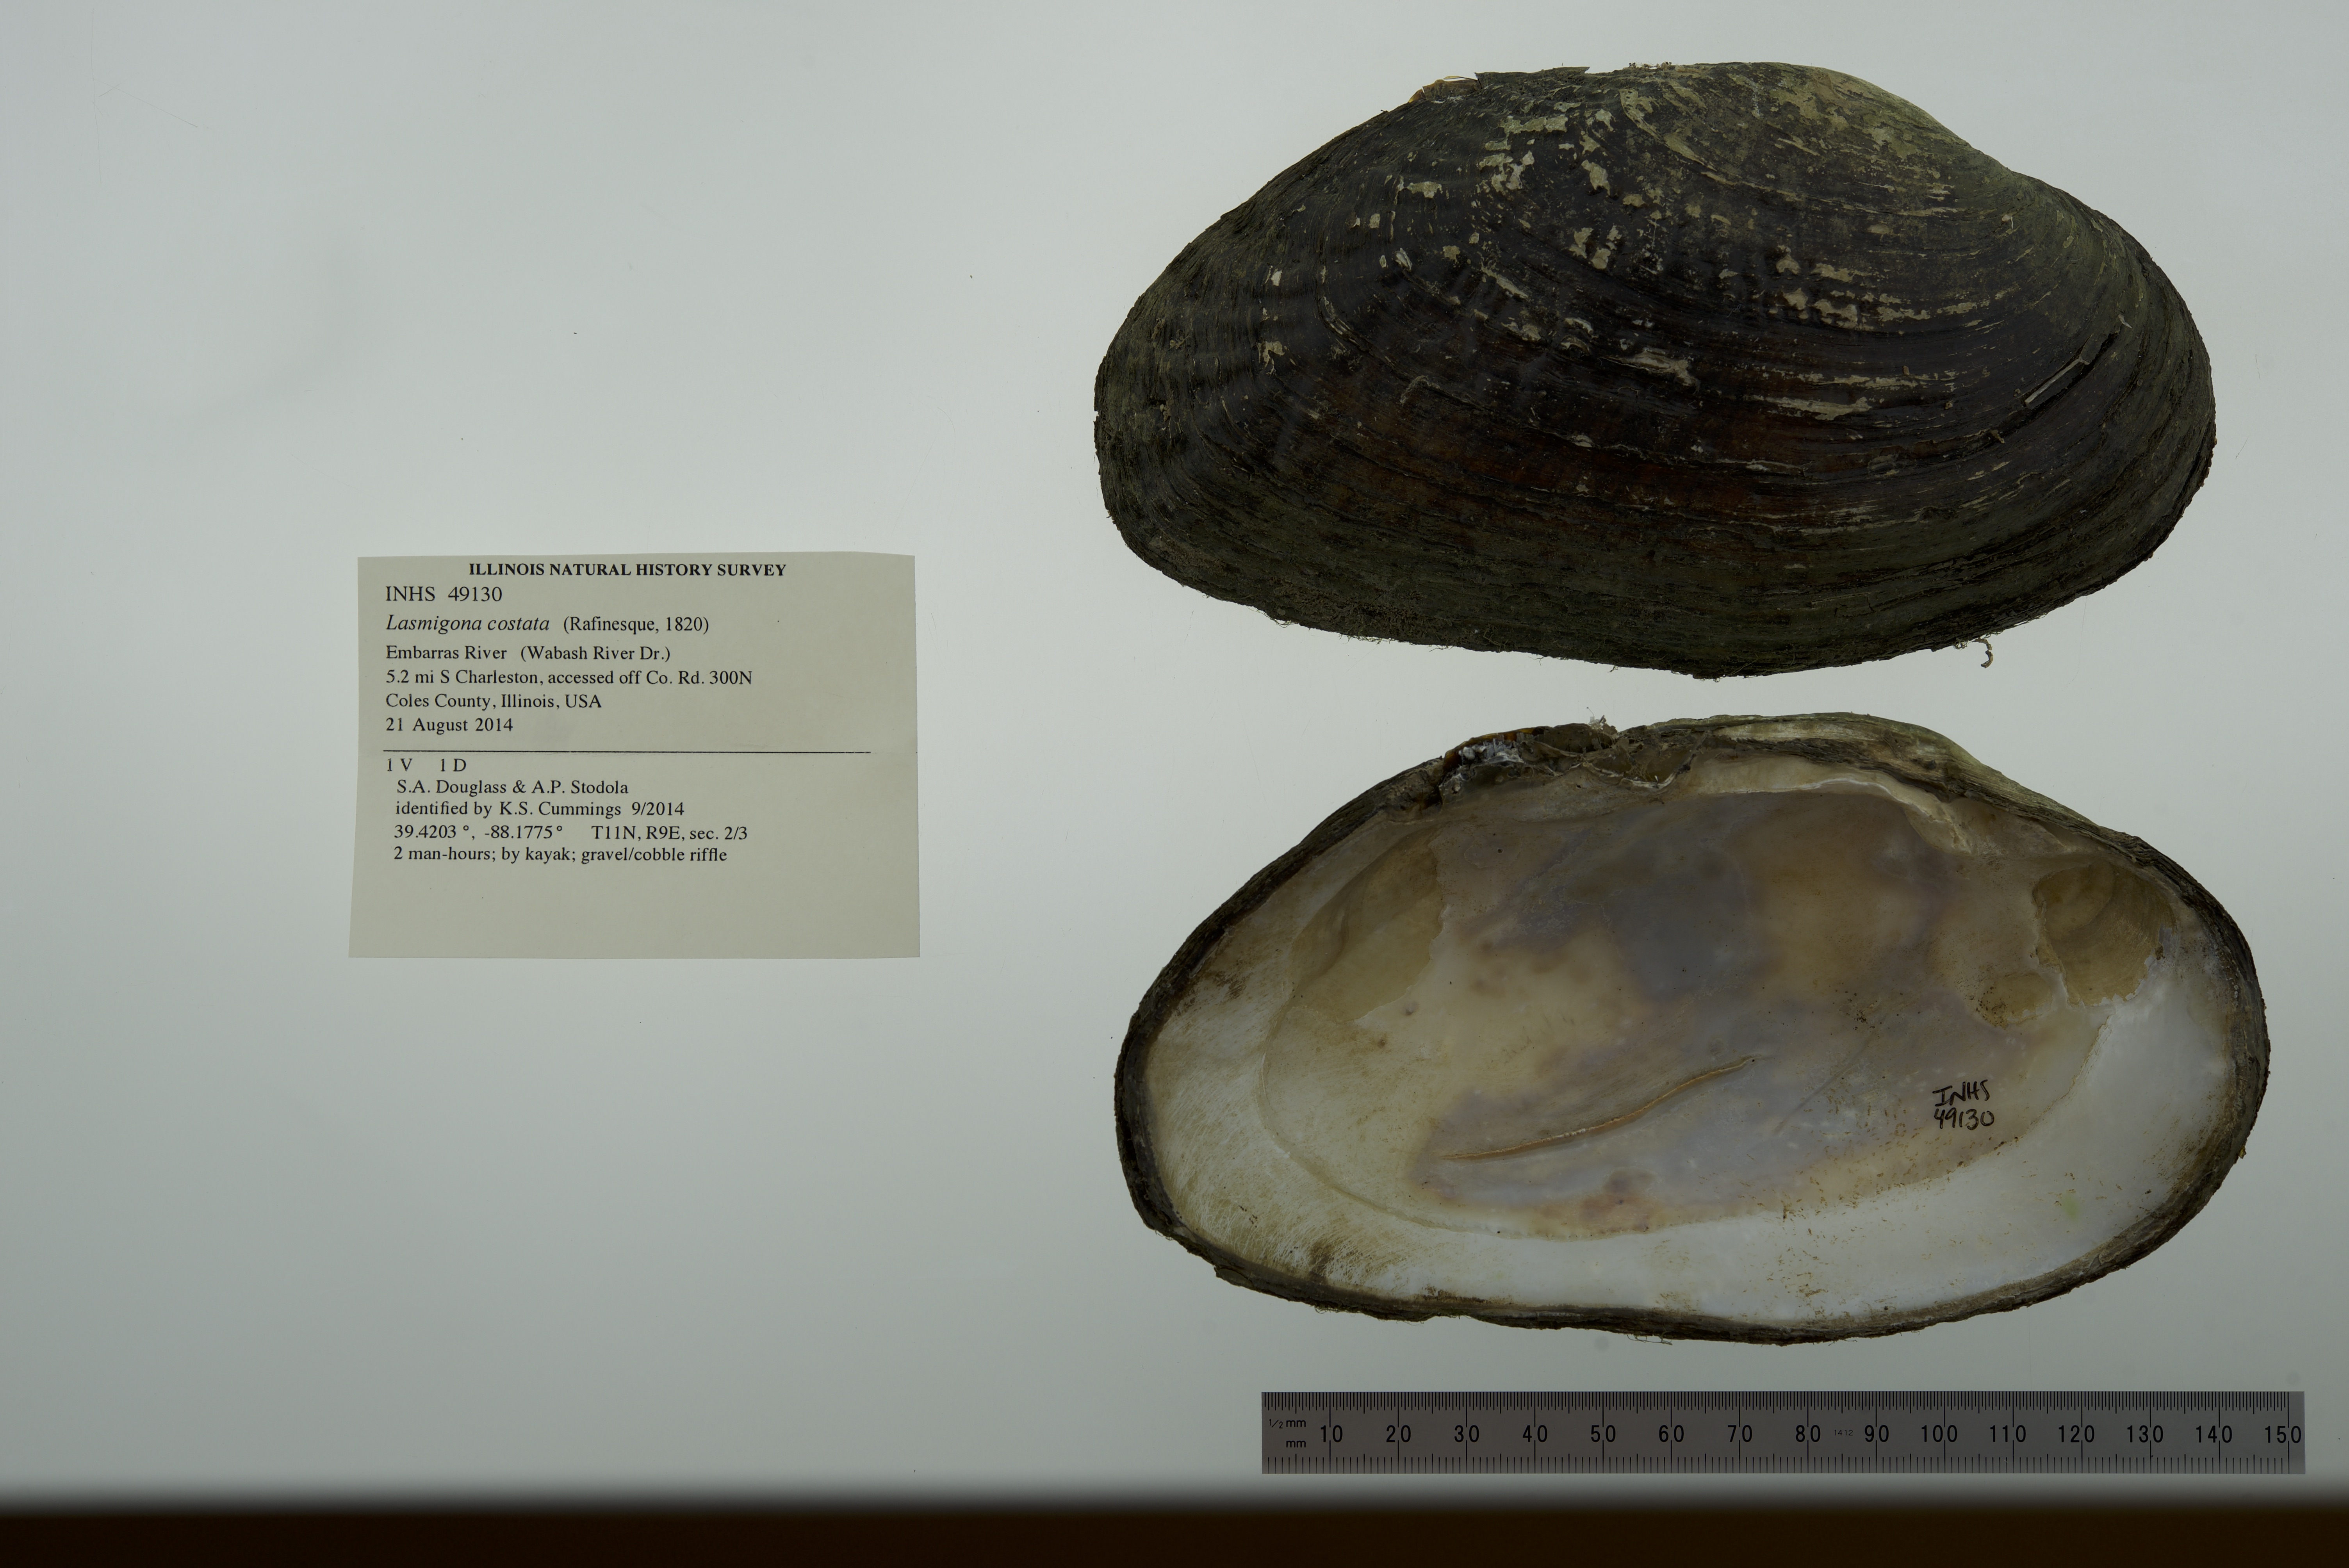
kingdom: Animalia
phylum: Mollusca
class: Bivalvia
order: Unionida
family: Unionidae
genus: Lasmigona
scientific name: Lasmigona costata
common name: Flutedshell
